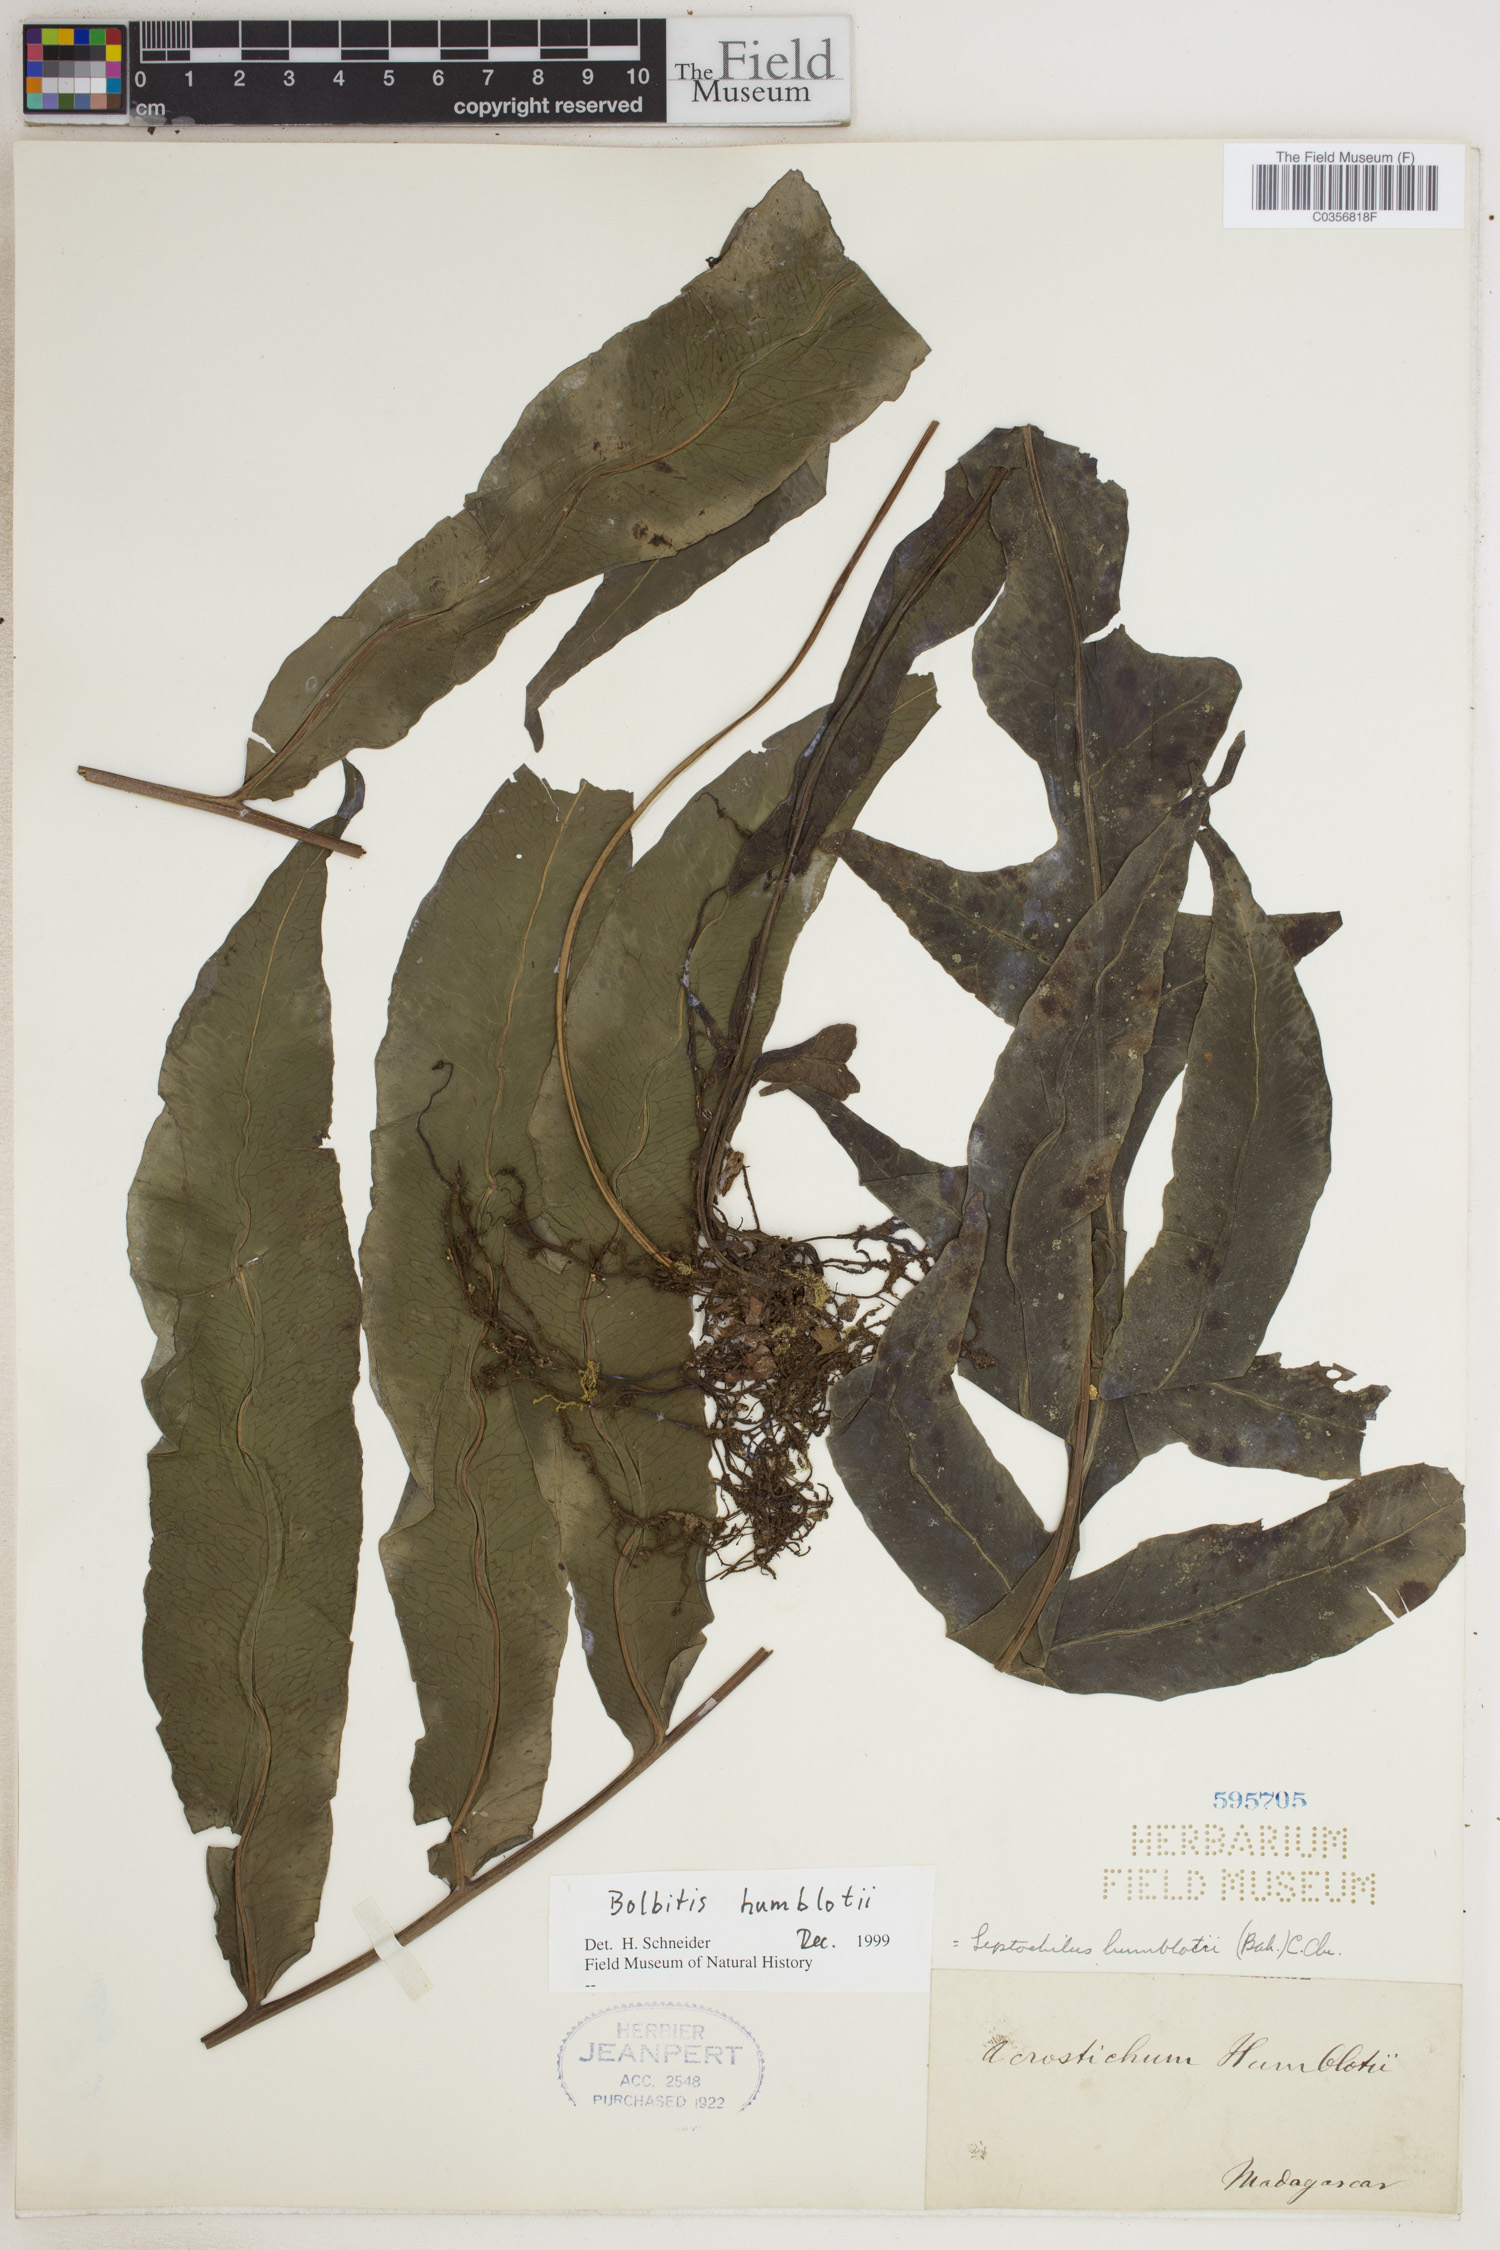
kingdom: Plantae
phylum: Tracheophyta
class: Polypodiopsida
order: Polypodiales
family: Dryopteridaceae
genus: Bolbitis
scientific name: Bolbitis humblotii
